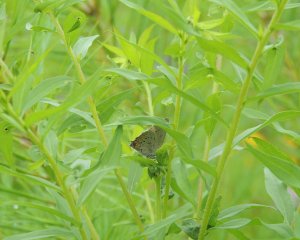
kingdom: Animalia
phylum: Arthropoda
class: Insecta
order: Lepidoptera
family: Lycaenidae
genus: Strymon
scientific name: Strymon acadica
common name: Acadian Hairstreak
